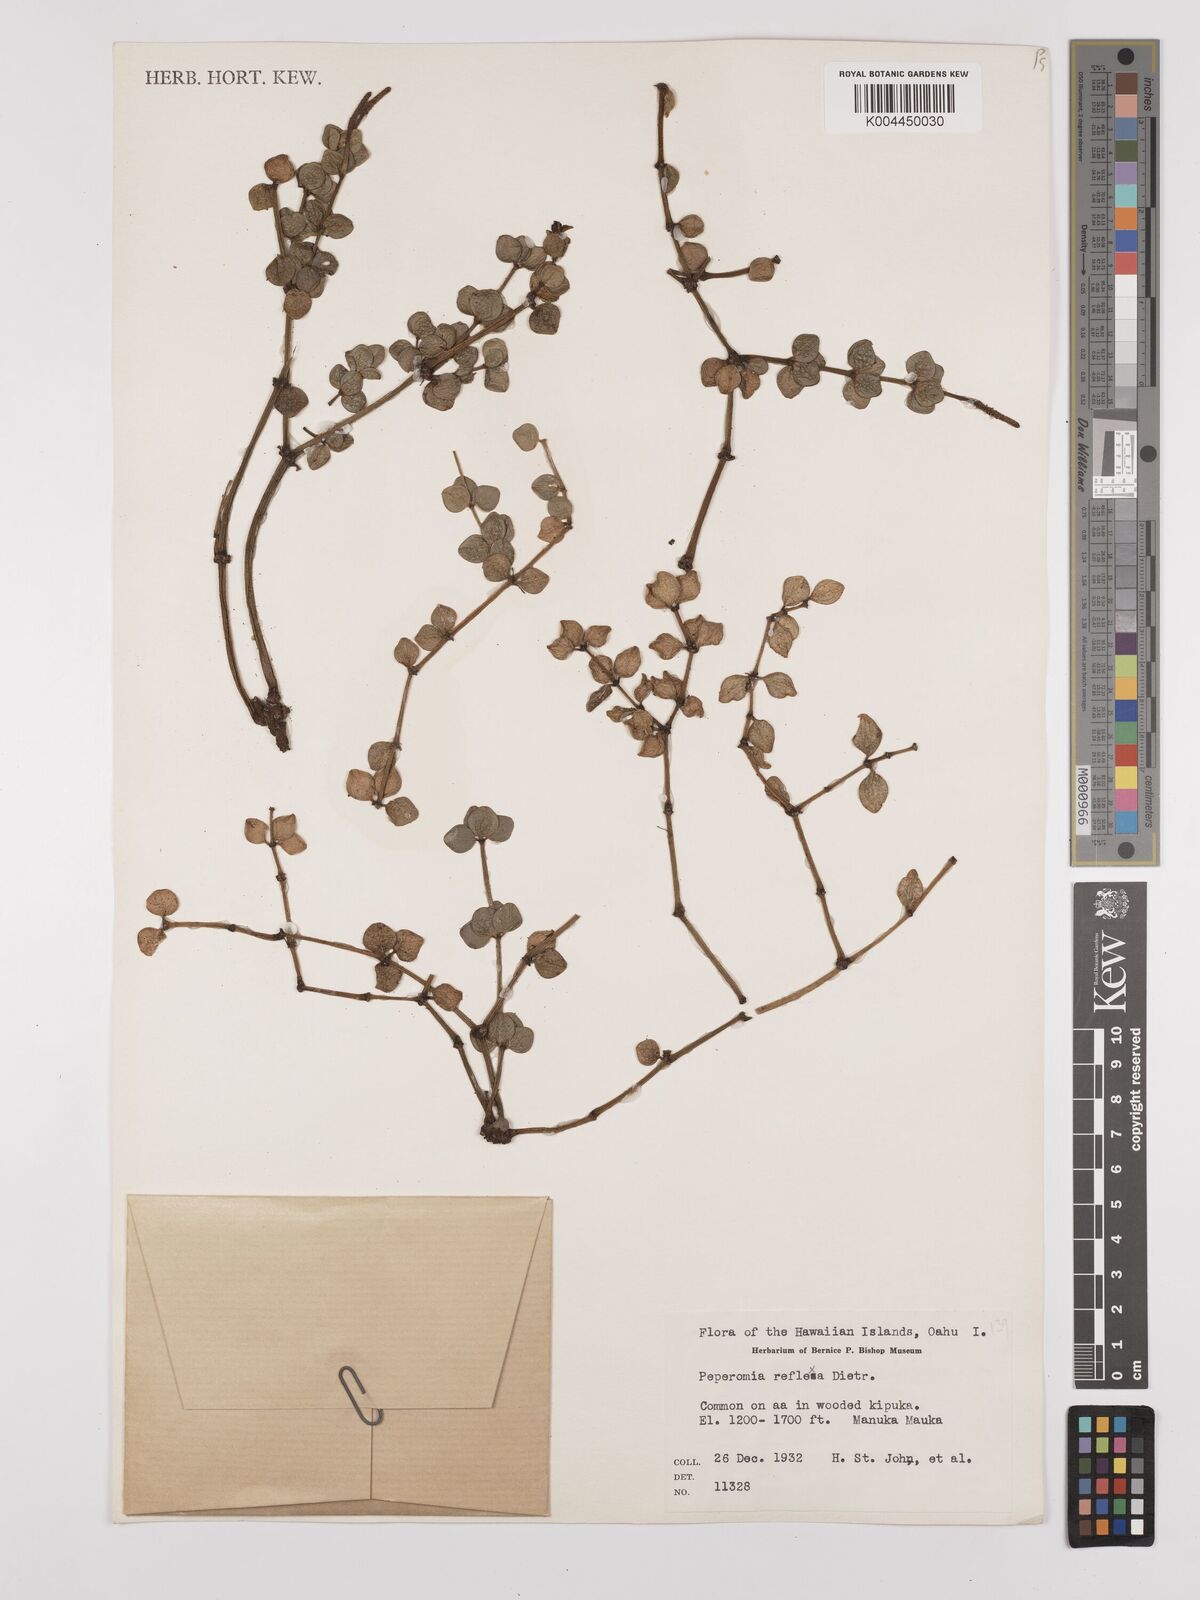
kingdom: Plantae
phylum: Tracheophyta
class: Magnoliopsida
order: Piperales
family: Piperaceae
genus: Peperomia
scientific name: Peperomia tetraphylla
